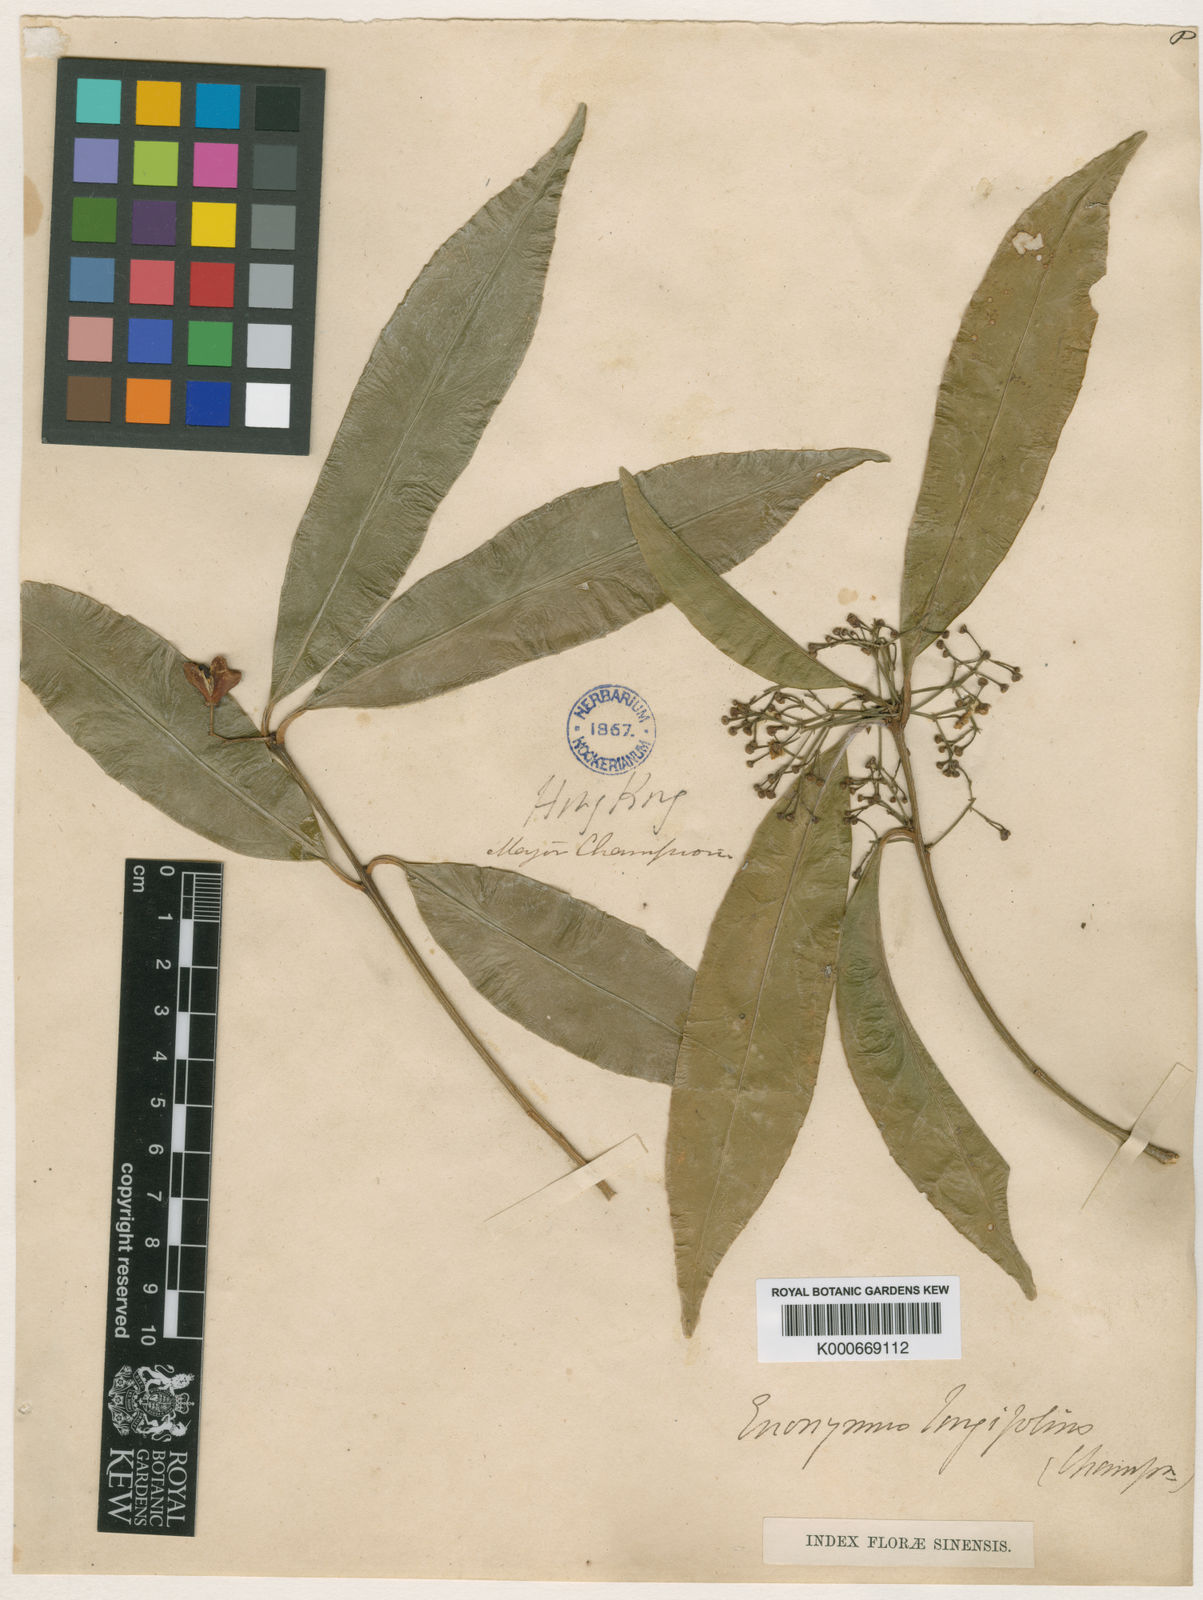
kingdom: Plantae
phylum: Tracheophyta
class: Magnoliopsida
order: Celastrales
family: Celastraceae
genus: Euonymus
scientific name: Euonymus tsoi
